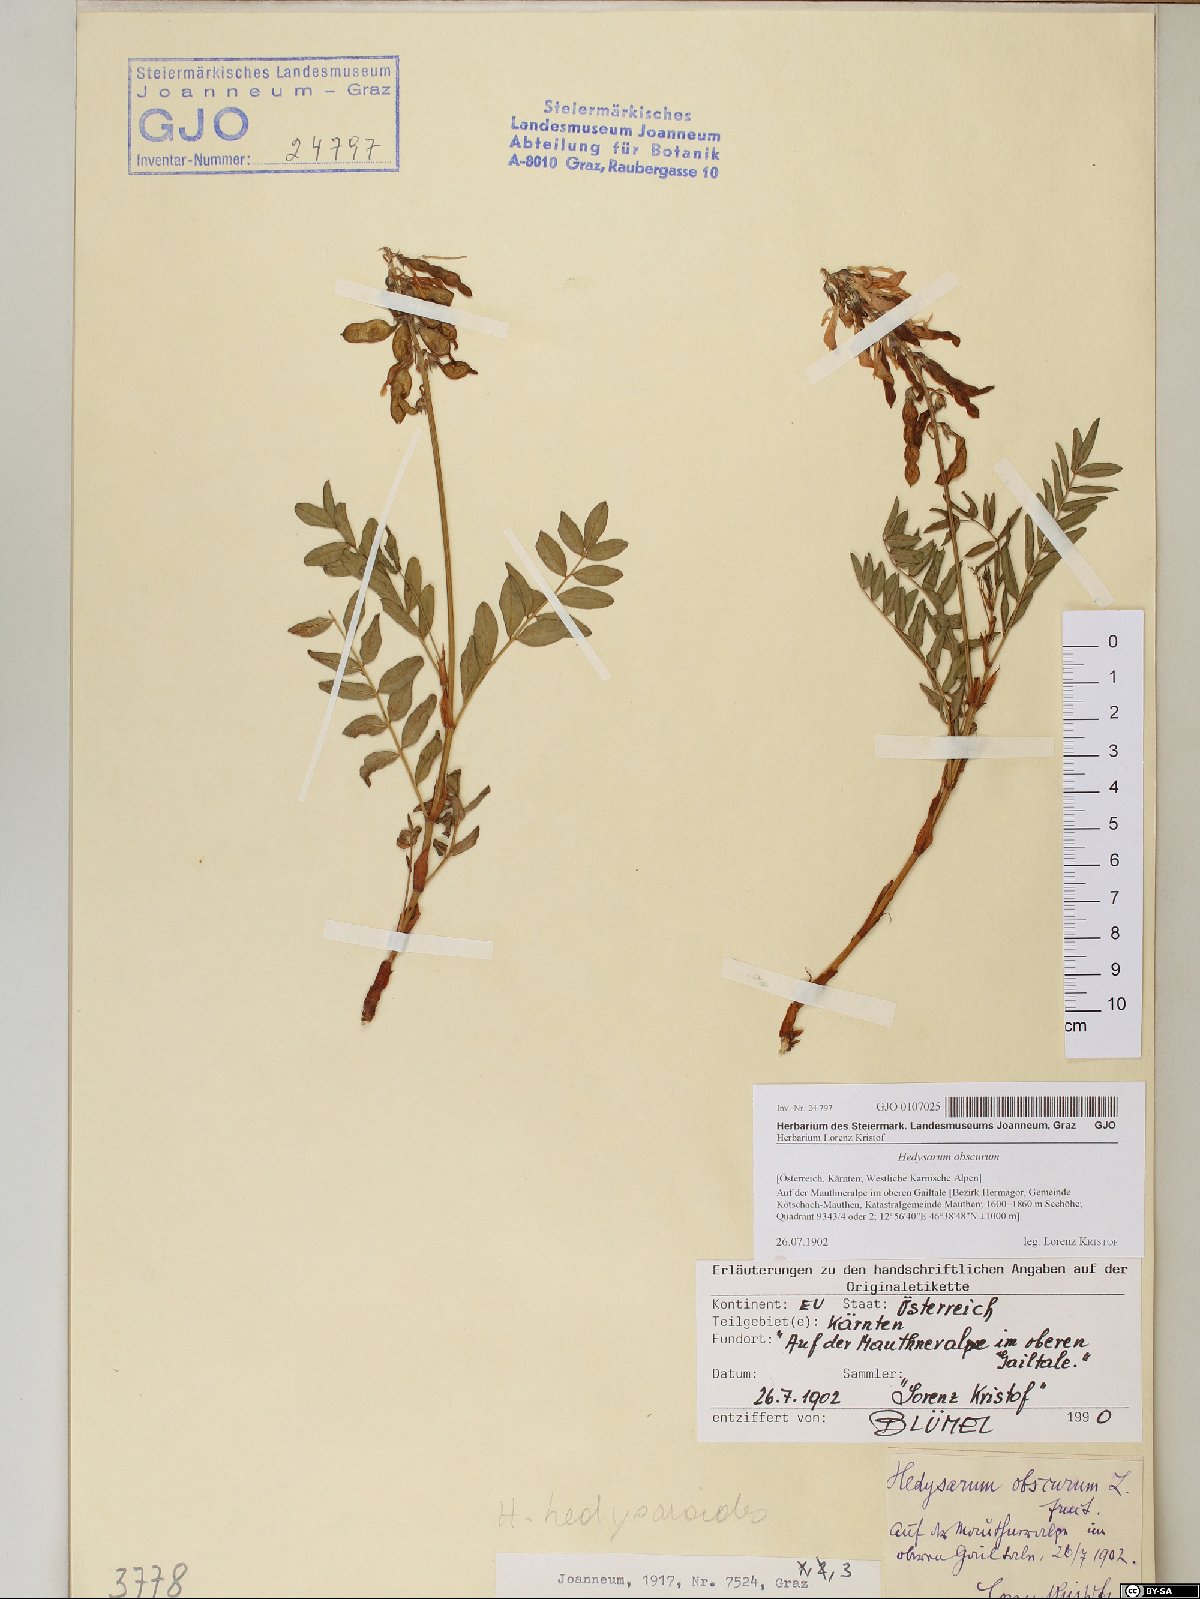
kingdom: Plantae
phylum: Tracheophyta
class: Magnoliopsida
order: Fabales
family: Fabaceae
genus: Hedysarum
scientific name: Hedysarum hedysaroides
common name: Alpine french-honeysuckle
